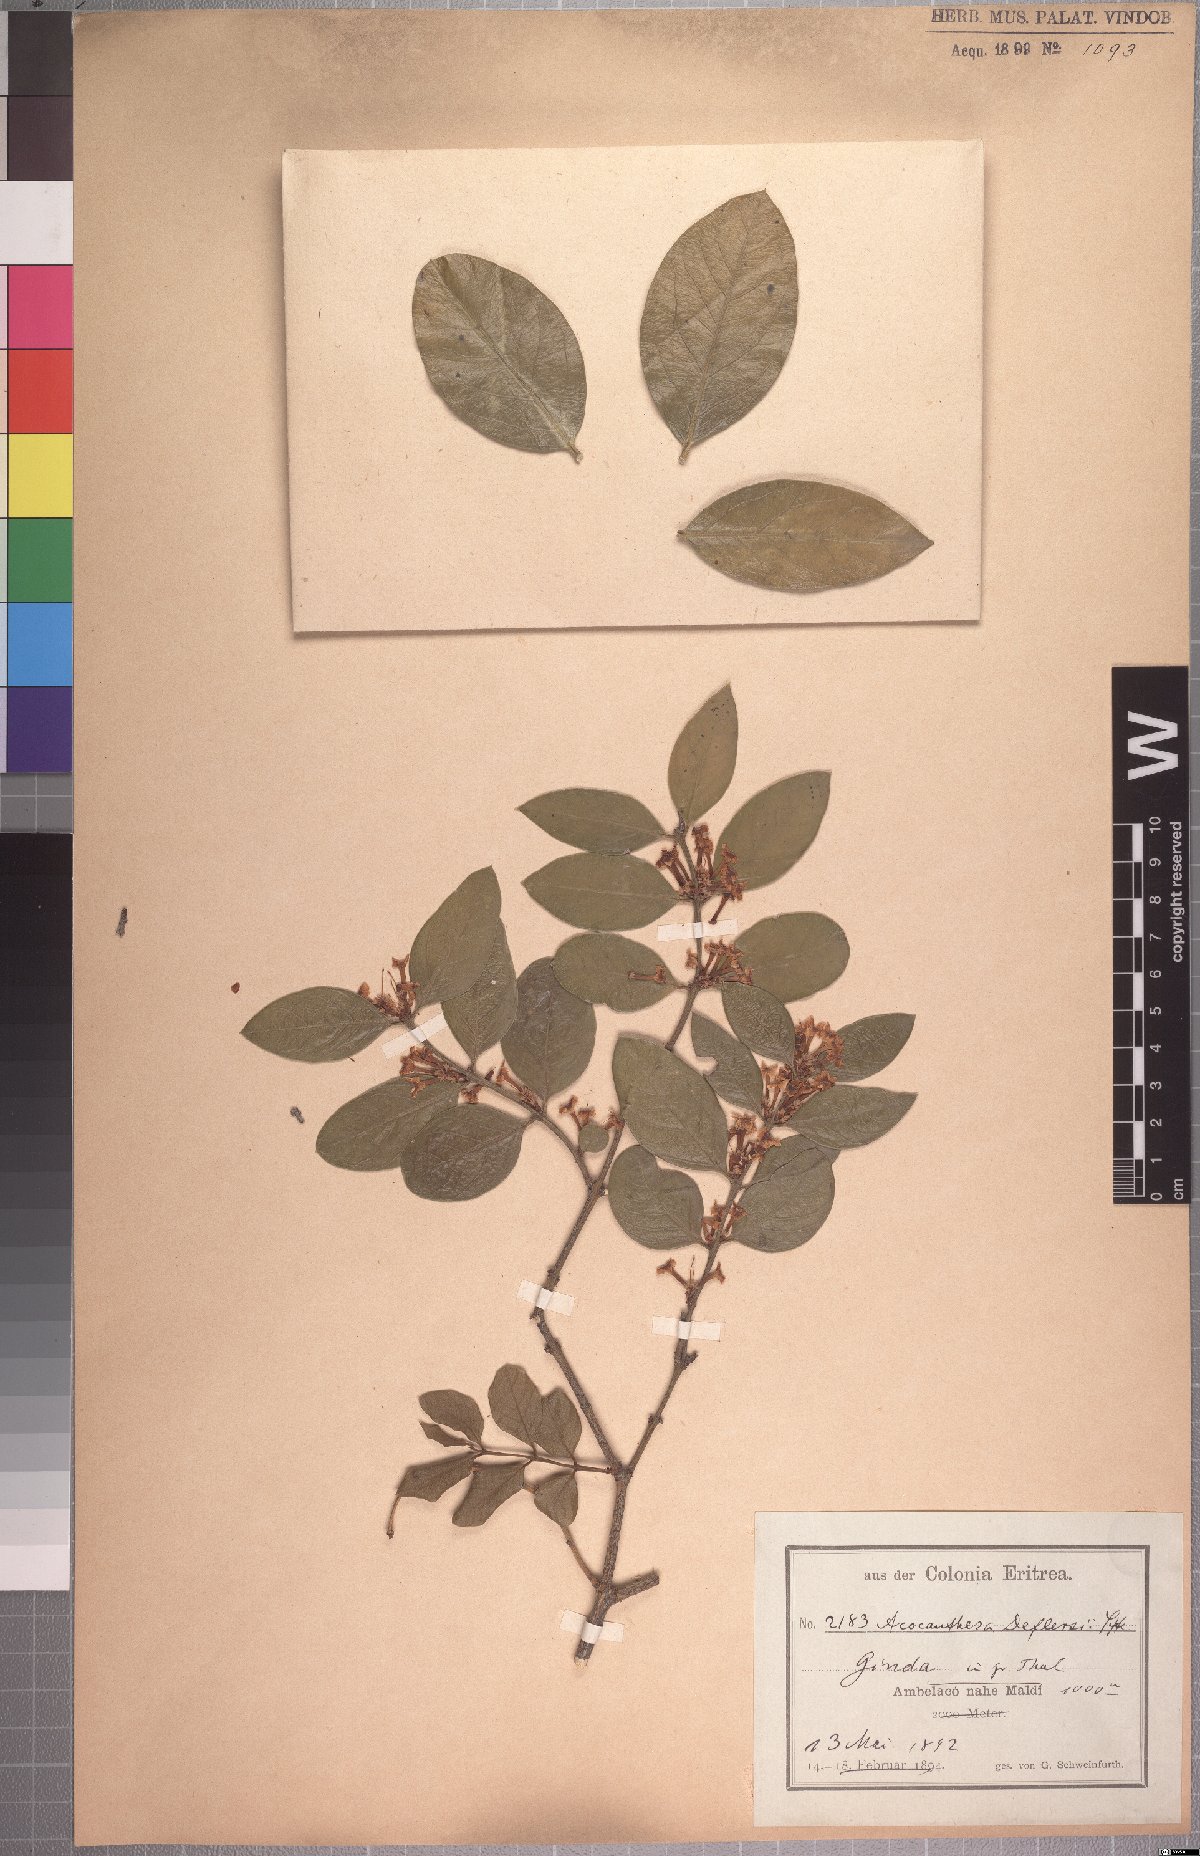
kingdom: Plantae
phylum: Tracheophyta
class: Magnoliopsida
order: Gentianales
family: Apocynaceae
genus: Acokanthera
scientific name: Acokanthera schimperi
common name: Arrow-poison-tree
